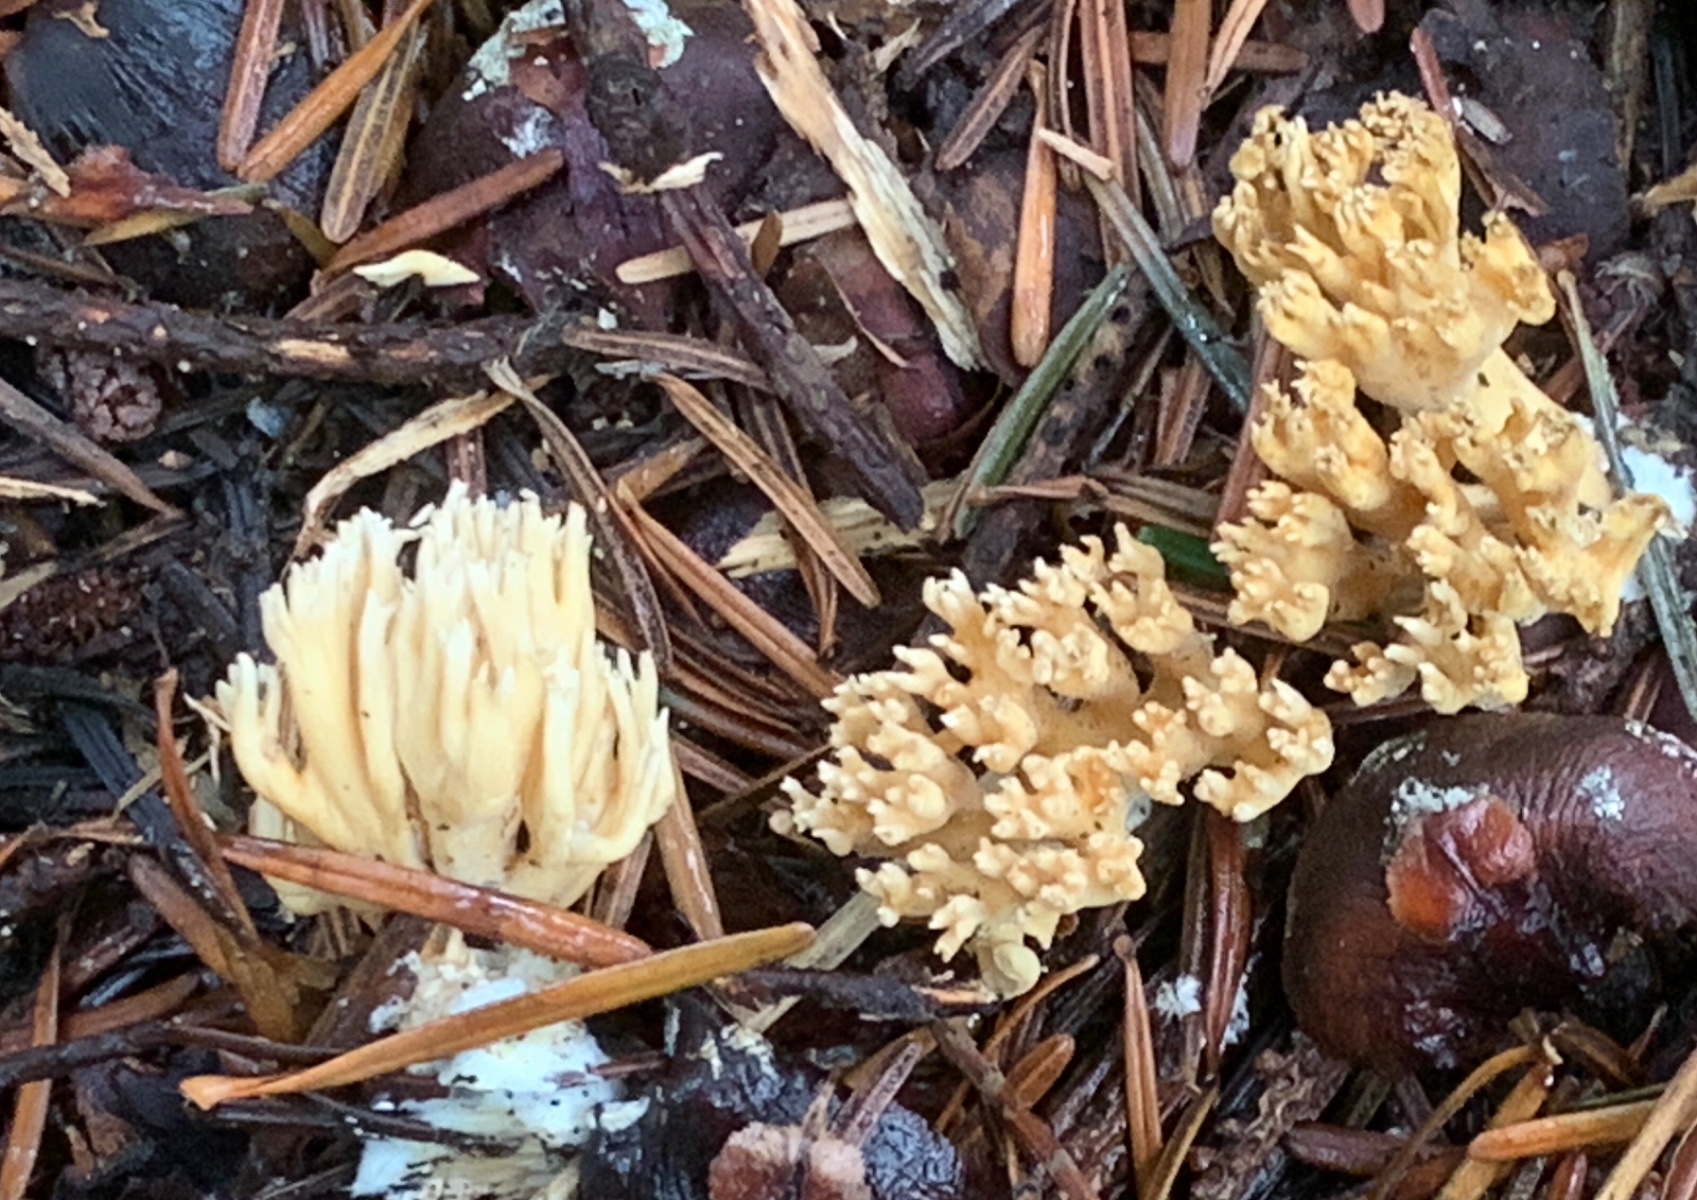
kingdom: Fungi
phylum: Basidiomycota
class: Agaricomycetes
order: Gomphales
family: Gomphaceae
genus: Phaeoclavulina
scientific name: Phaeoclavulina eumorpha
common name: gran-koralsvamp
